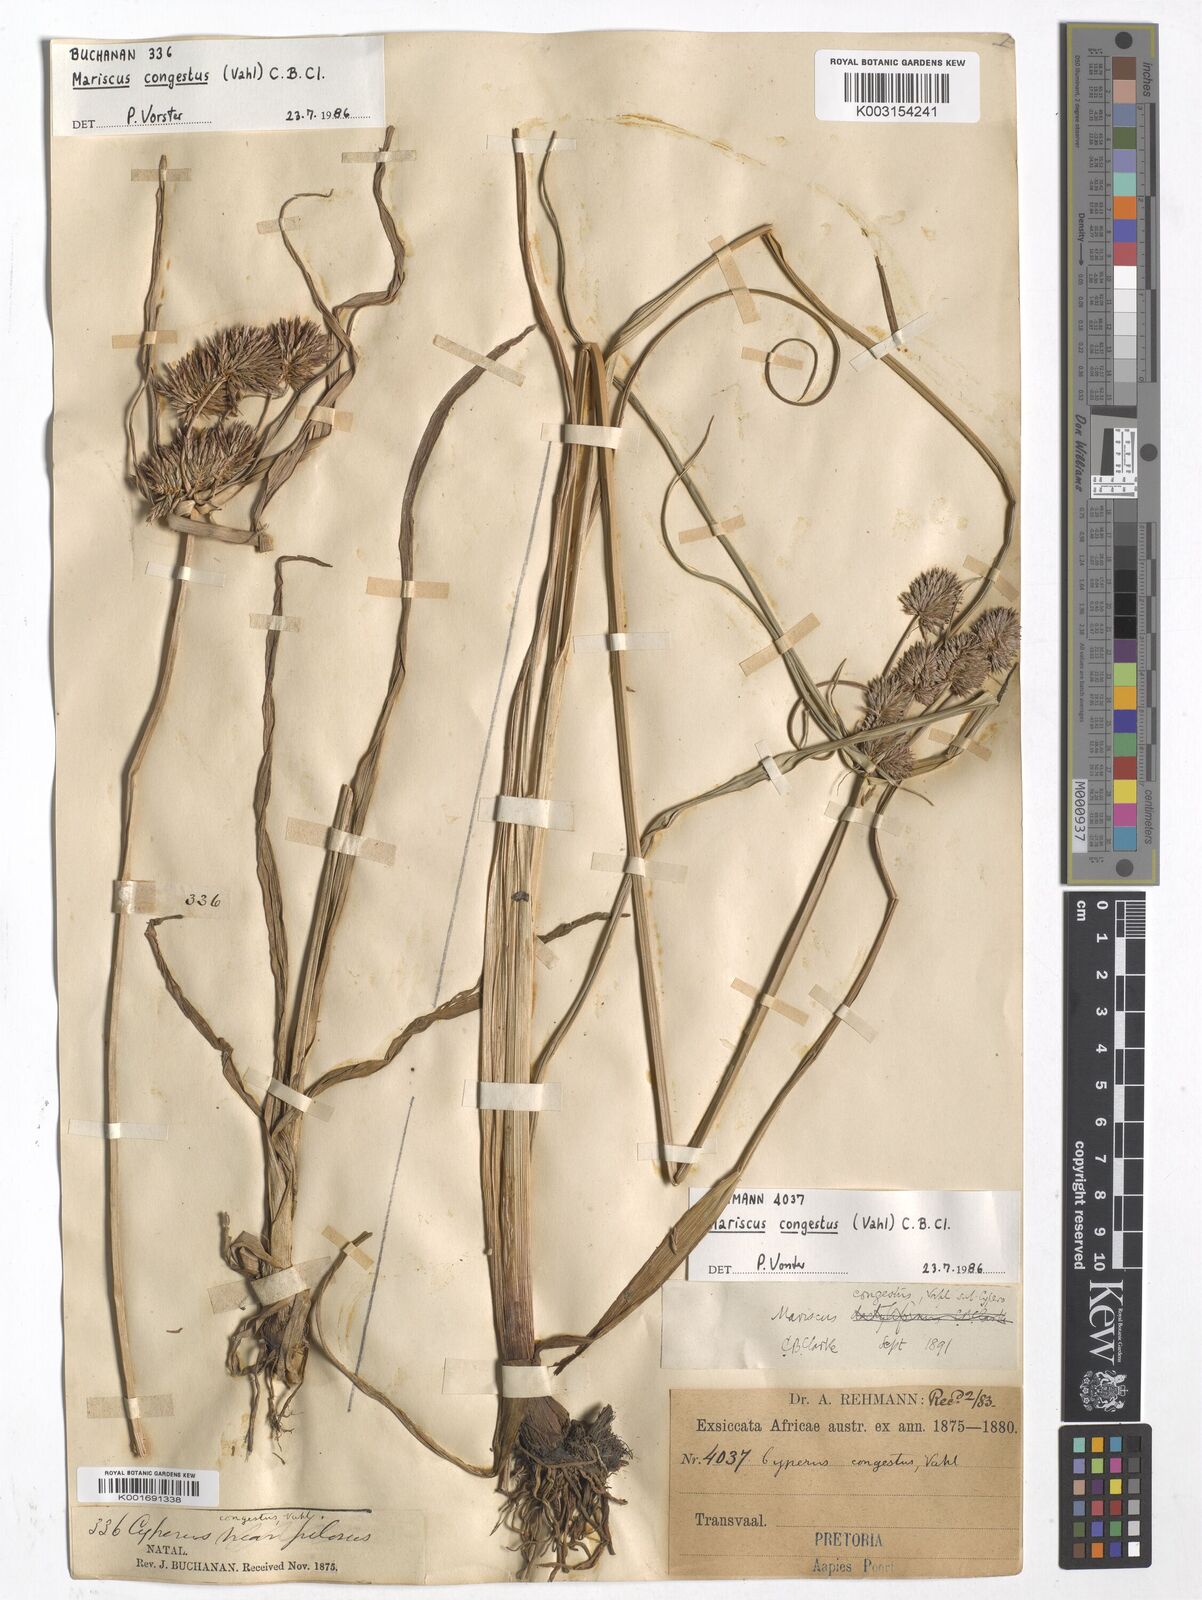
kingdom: Plantae
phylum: Tracheophyta
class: Liliopsida
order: Poales
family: Cyperaceae
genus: Cyperus
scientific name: Cyperus congestus
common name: Dense flat sedge
